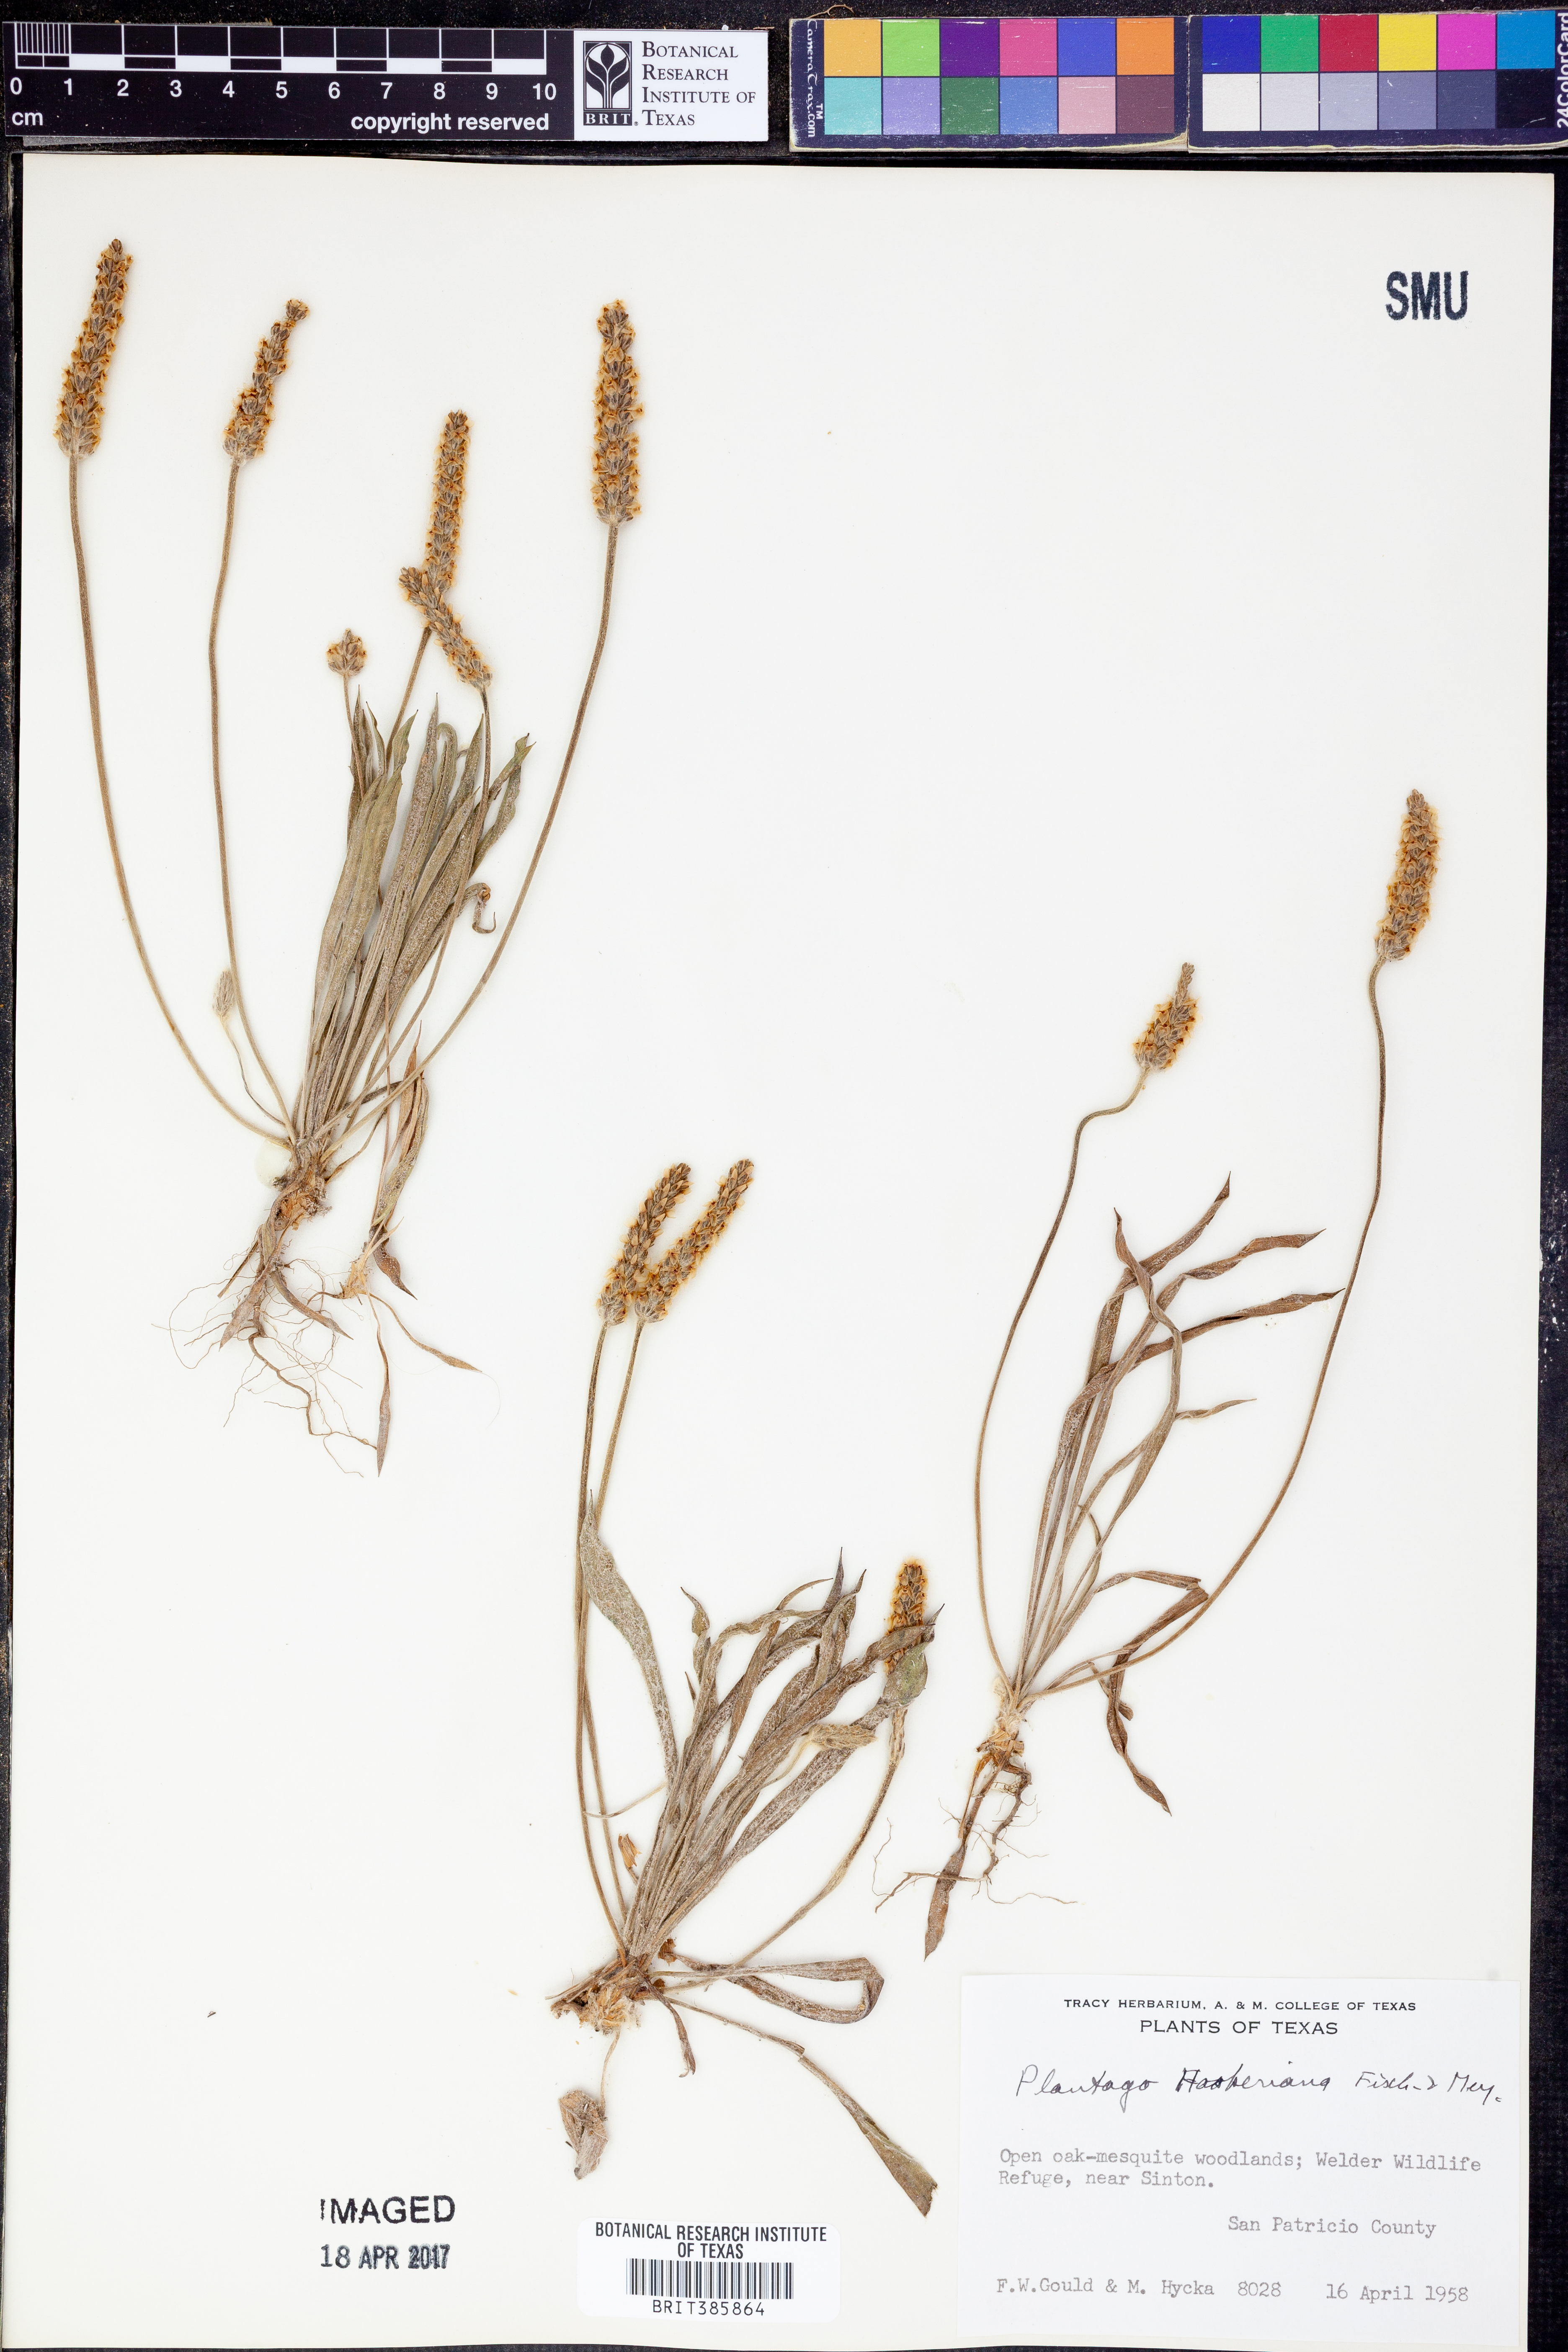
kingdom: Plantae
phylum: Tracheophyta
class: Magnoliopsida
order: Lamiales
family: Plantaginaceae
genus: Plantago
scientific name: Plantago hookeriana
